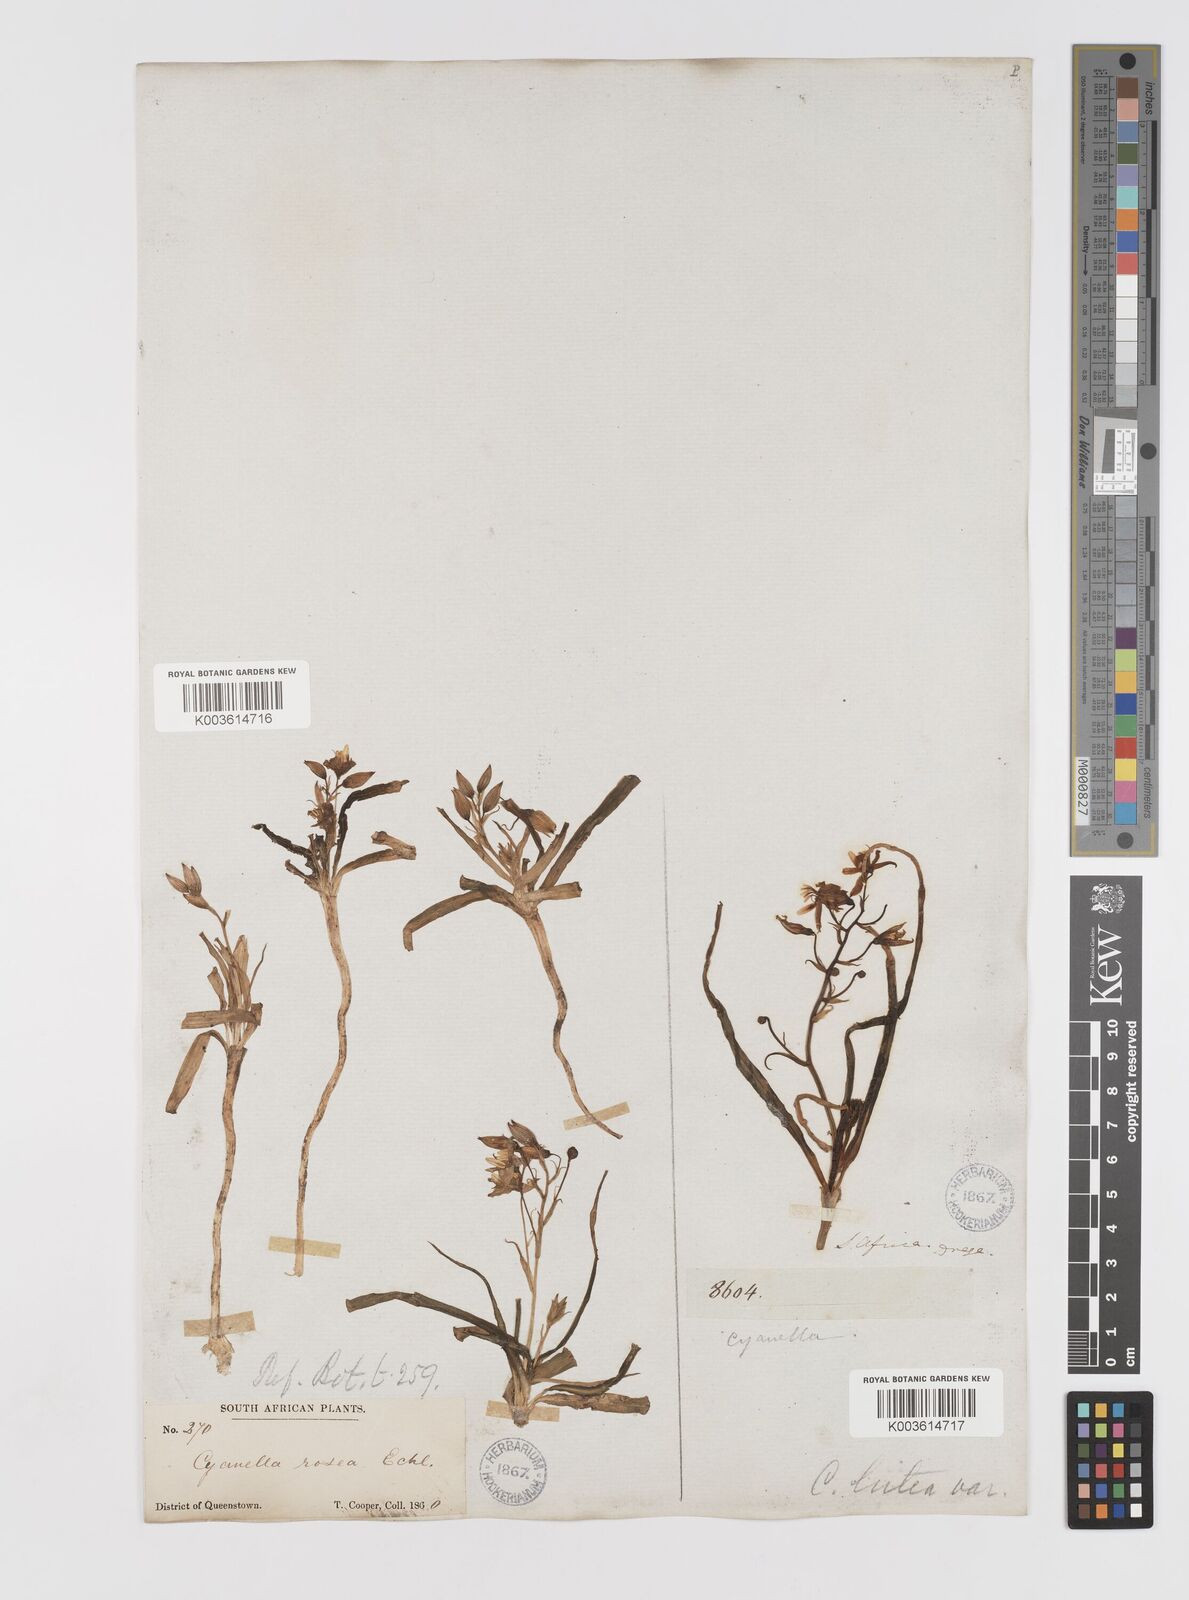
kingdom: Plantae
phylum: Tracheophyta
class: Liliopsida
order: Asparagales
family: Tecophilaeaceae
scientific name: Tecophilaeaceae
